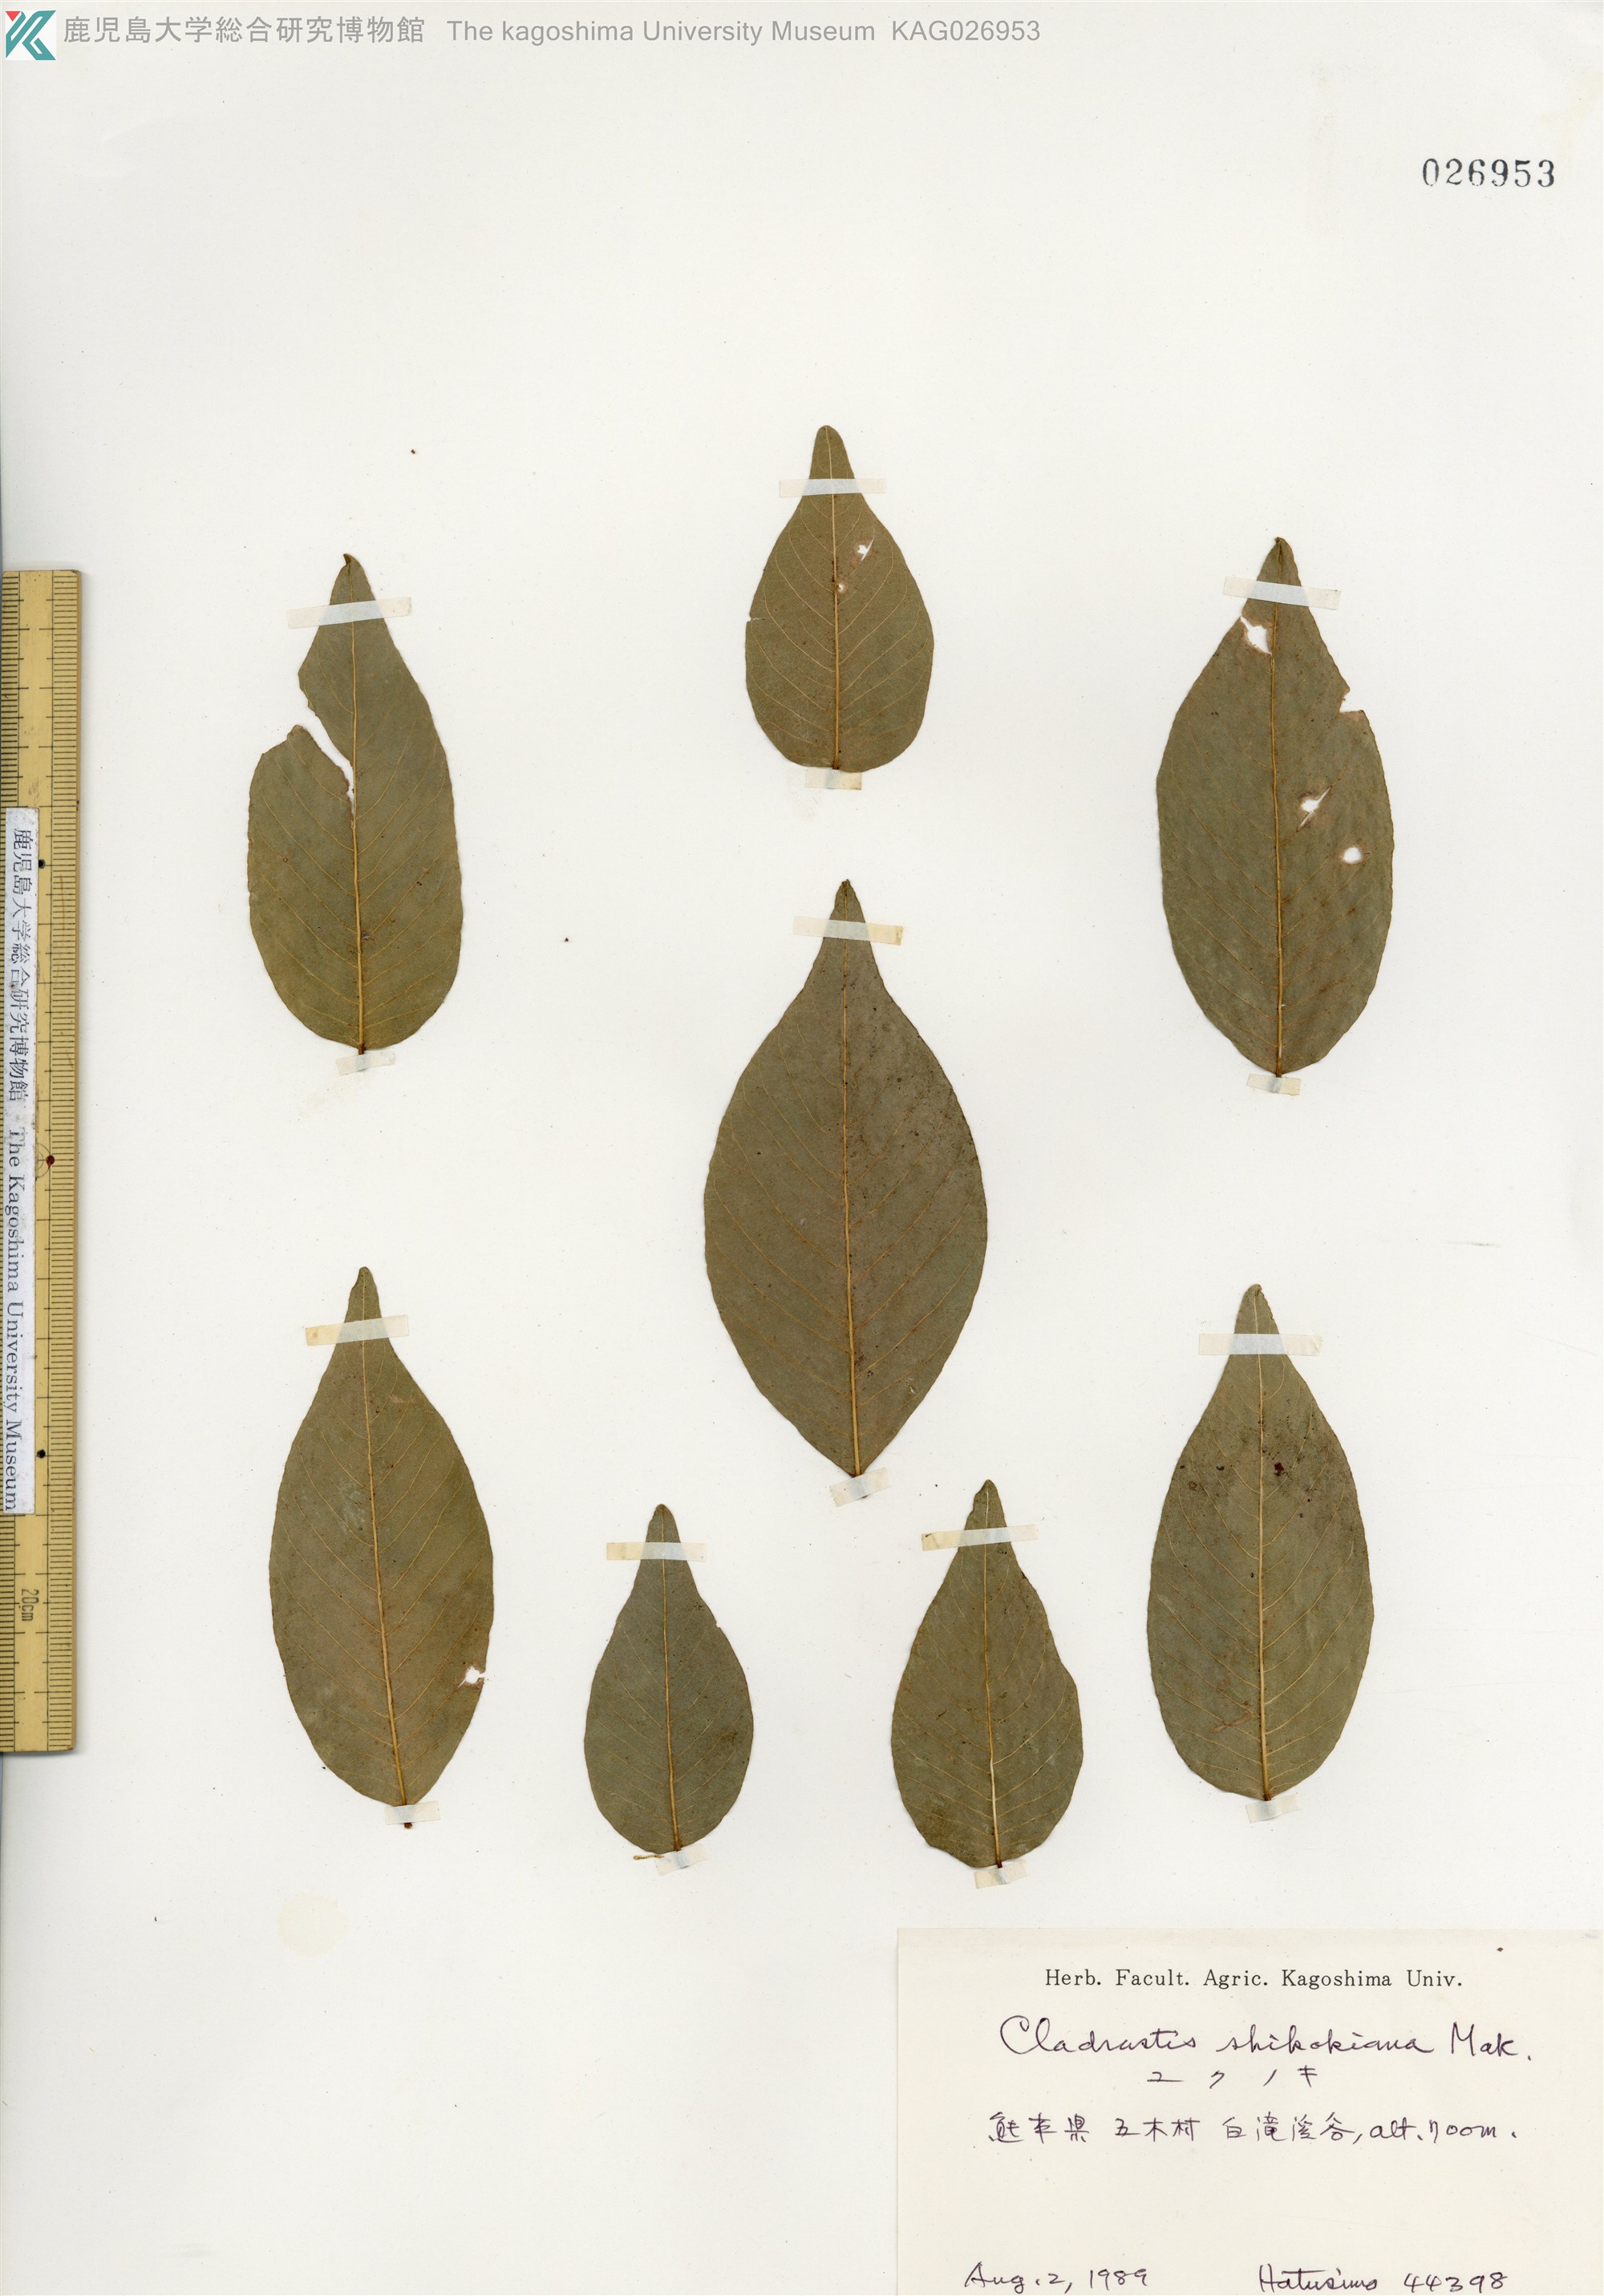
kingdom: Plantae
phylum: Tracheophyta
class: Magnoliopsida
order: Fabales
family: Fabaceae
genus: Cladrastis
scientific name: Cladrastis shikokiana
